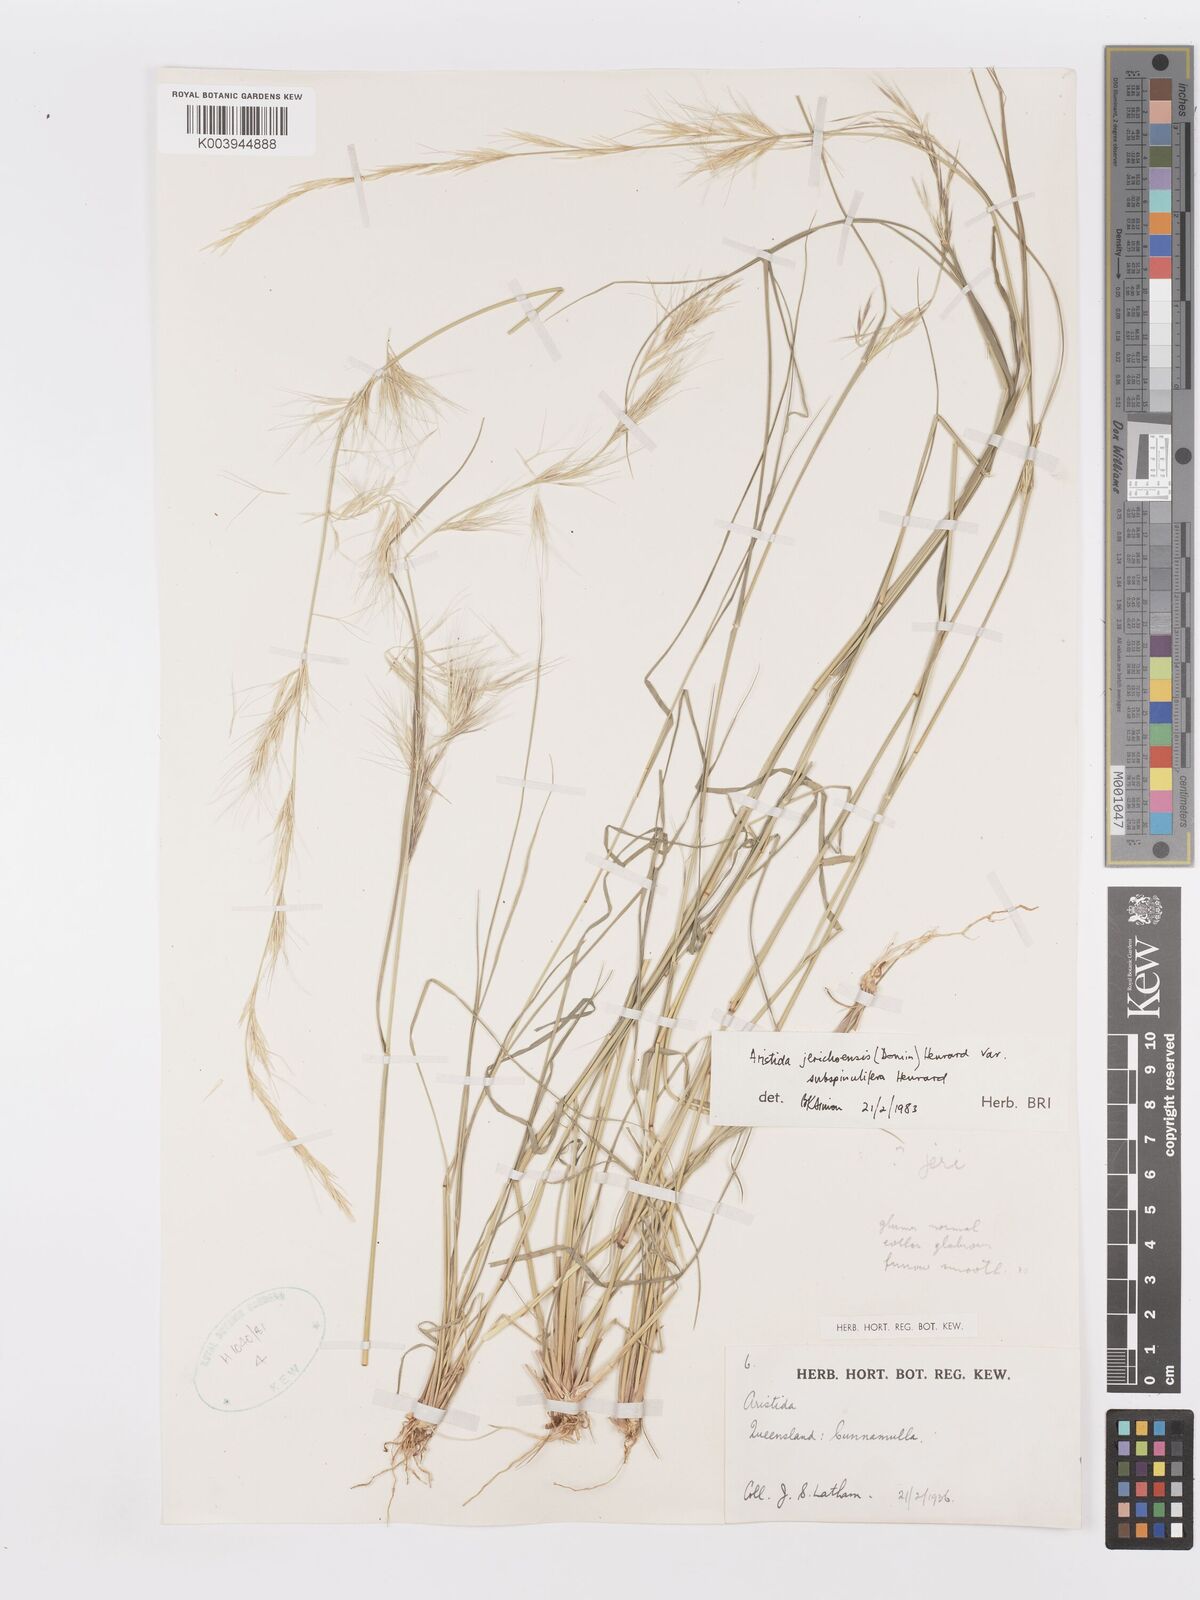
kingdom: Plantae
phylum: Tracheophyta
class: Liliopsida
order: Poales
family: Poaceae
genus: Aristida
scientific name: Aristida jerichoensis
